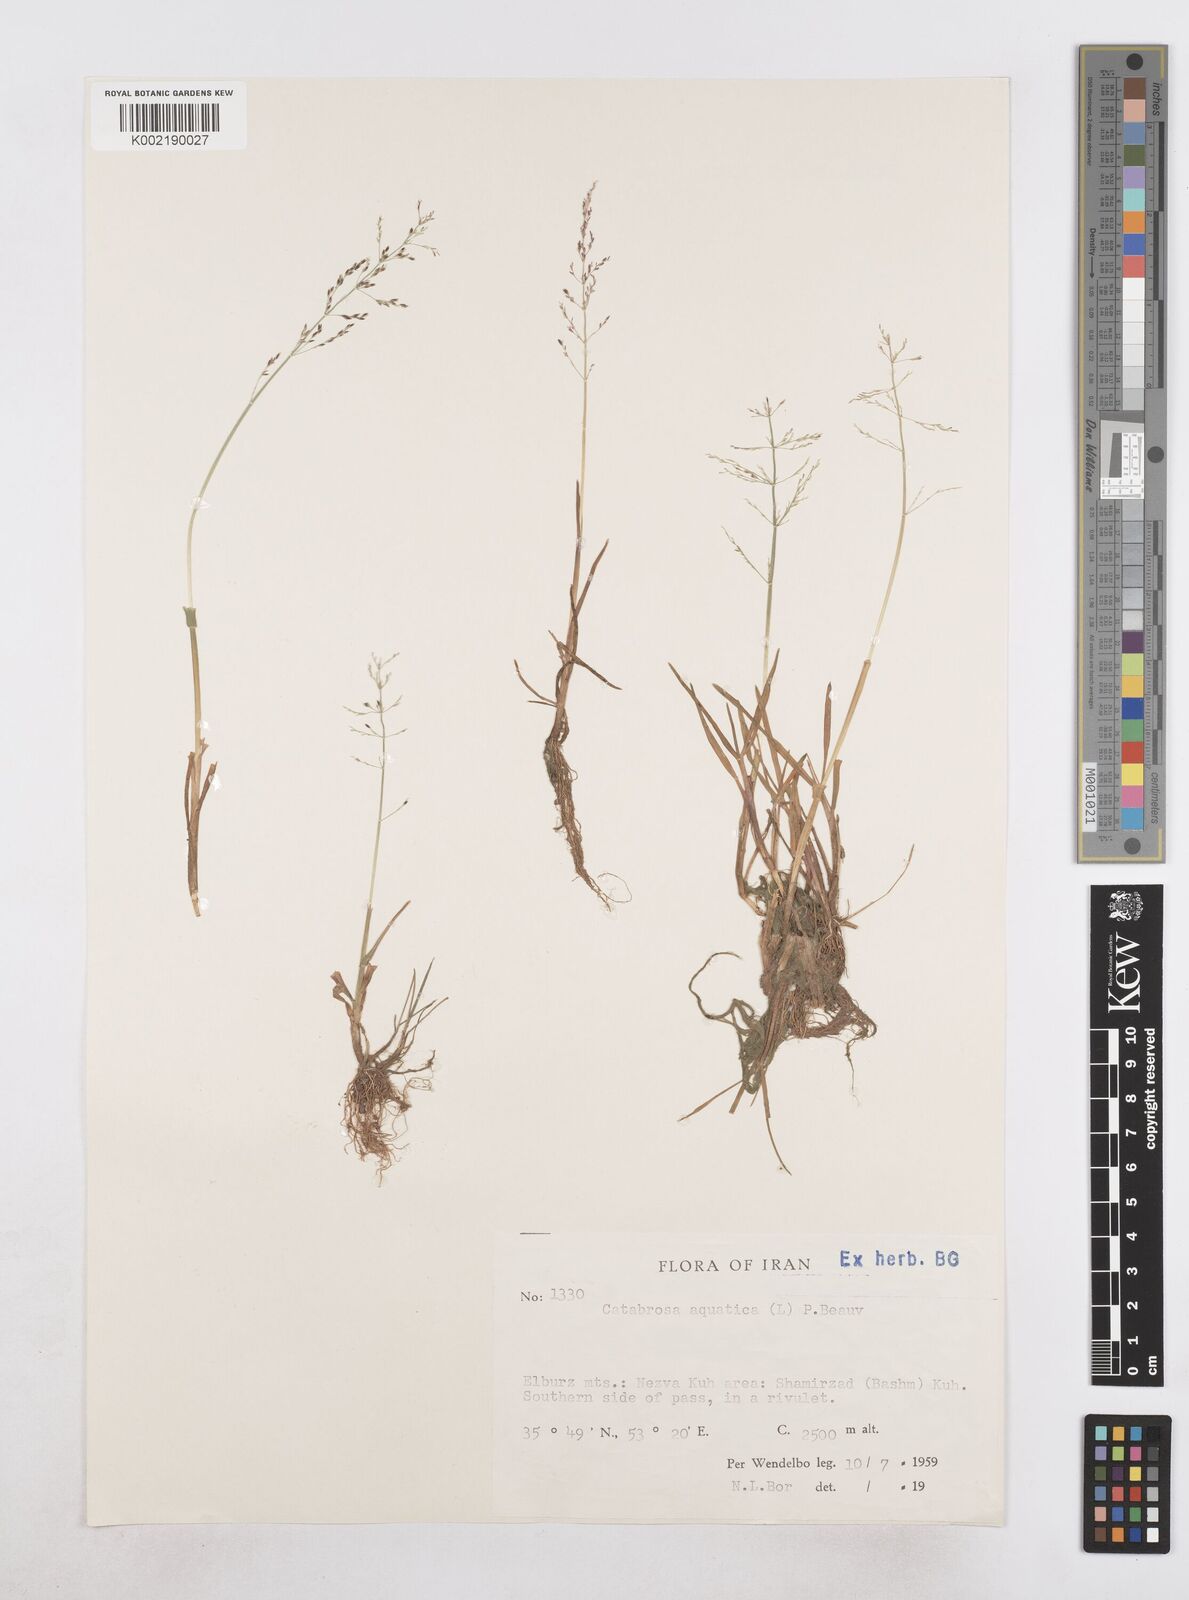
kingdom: Plantae
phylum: Tracheophyta
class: Liliopsida
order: Poales
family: Poaceae
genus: Catabrosa
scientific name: Catabrosa aquatica
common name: Whorl-grass
